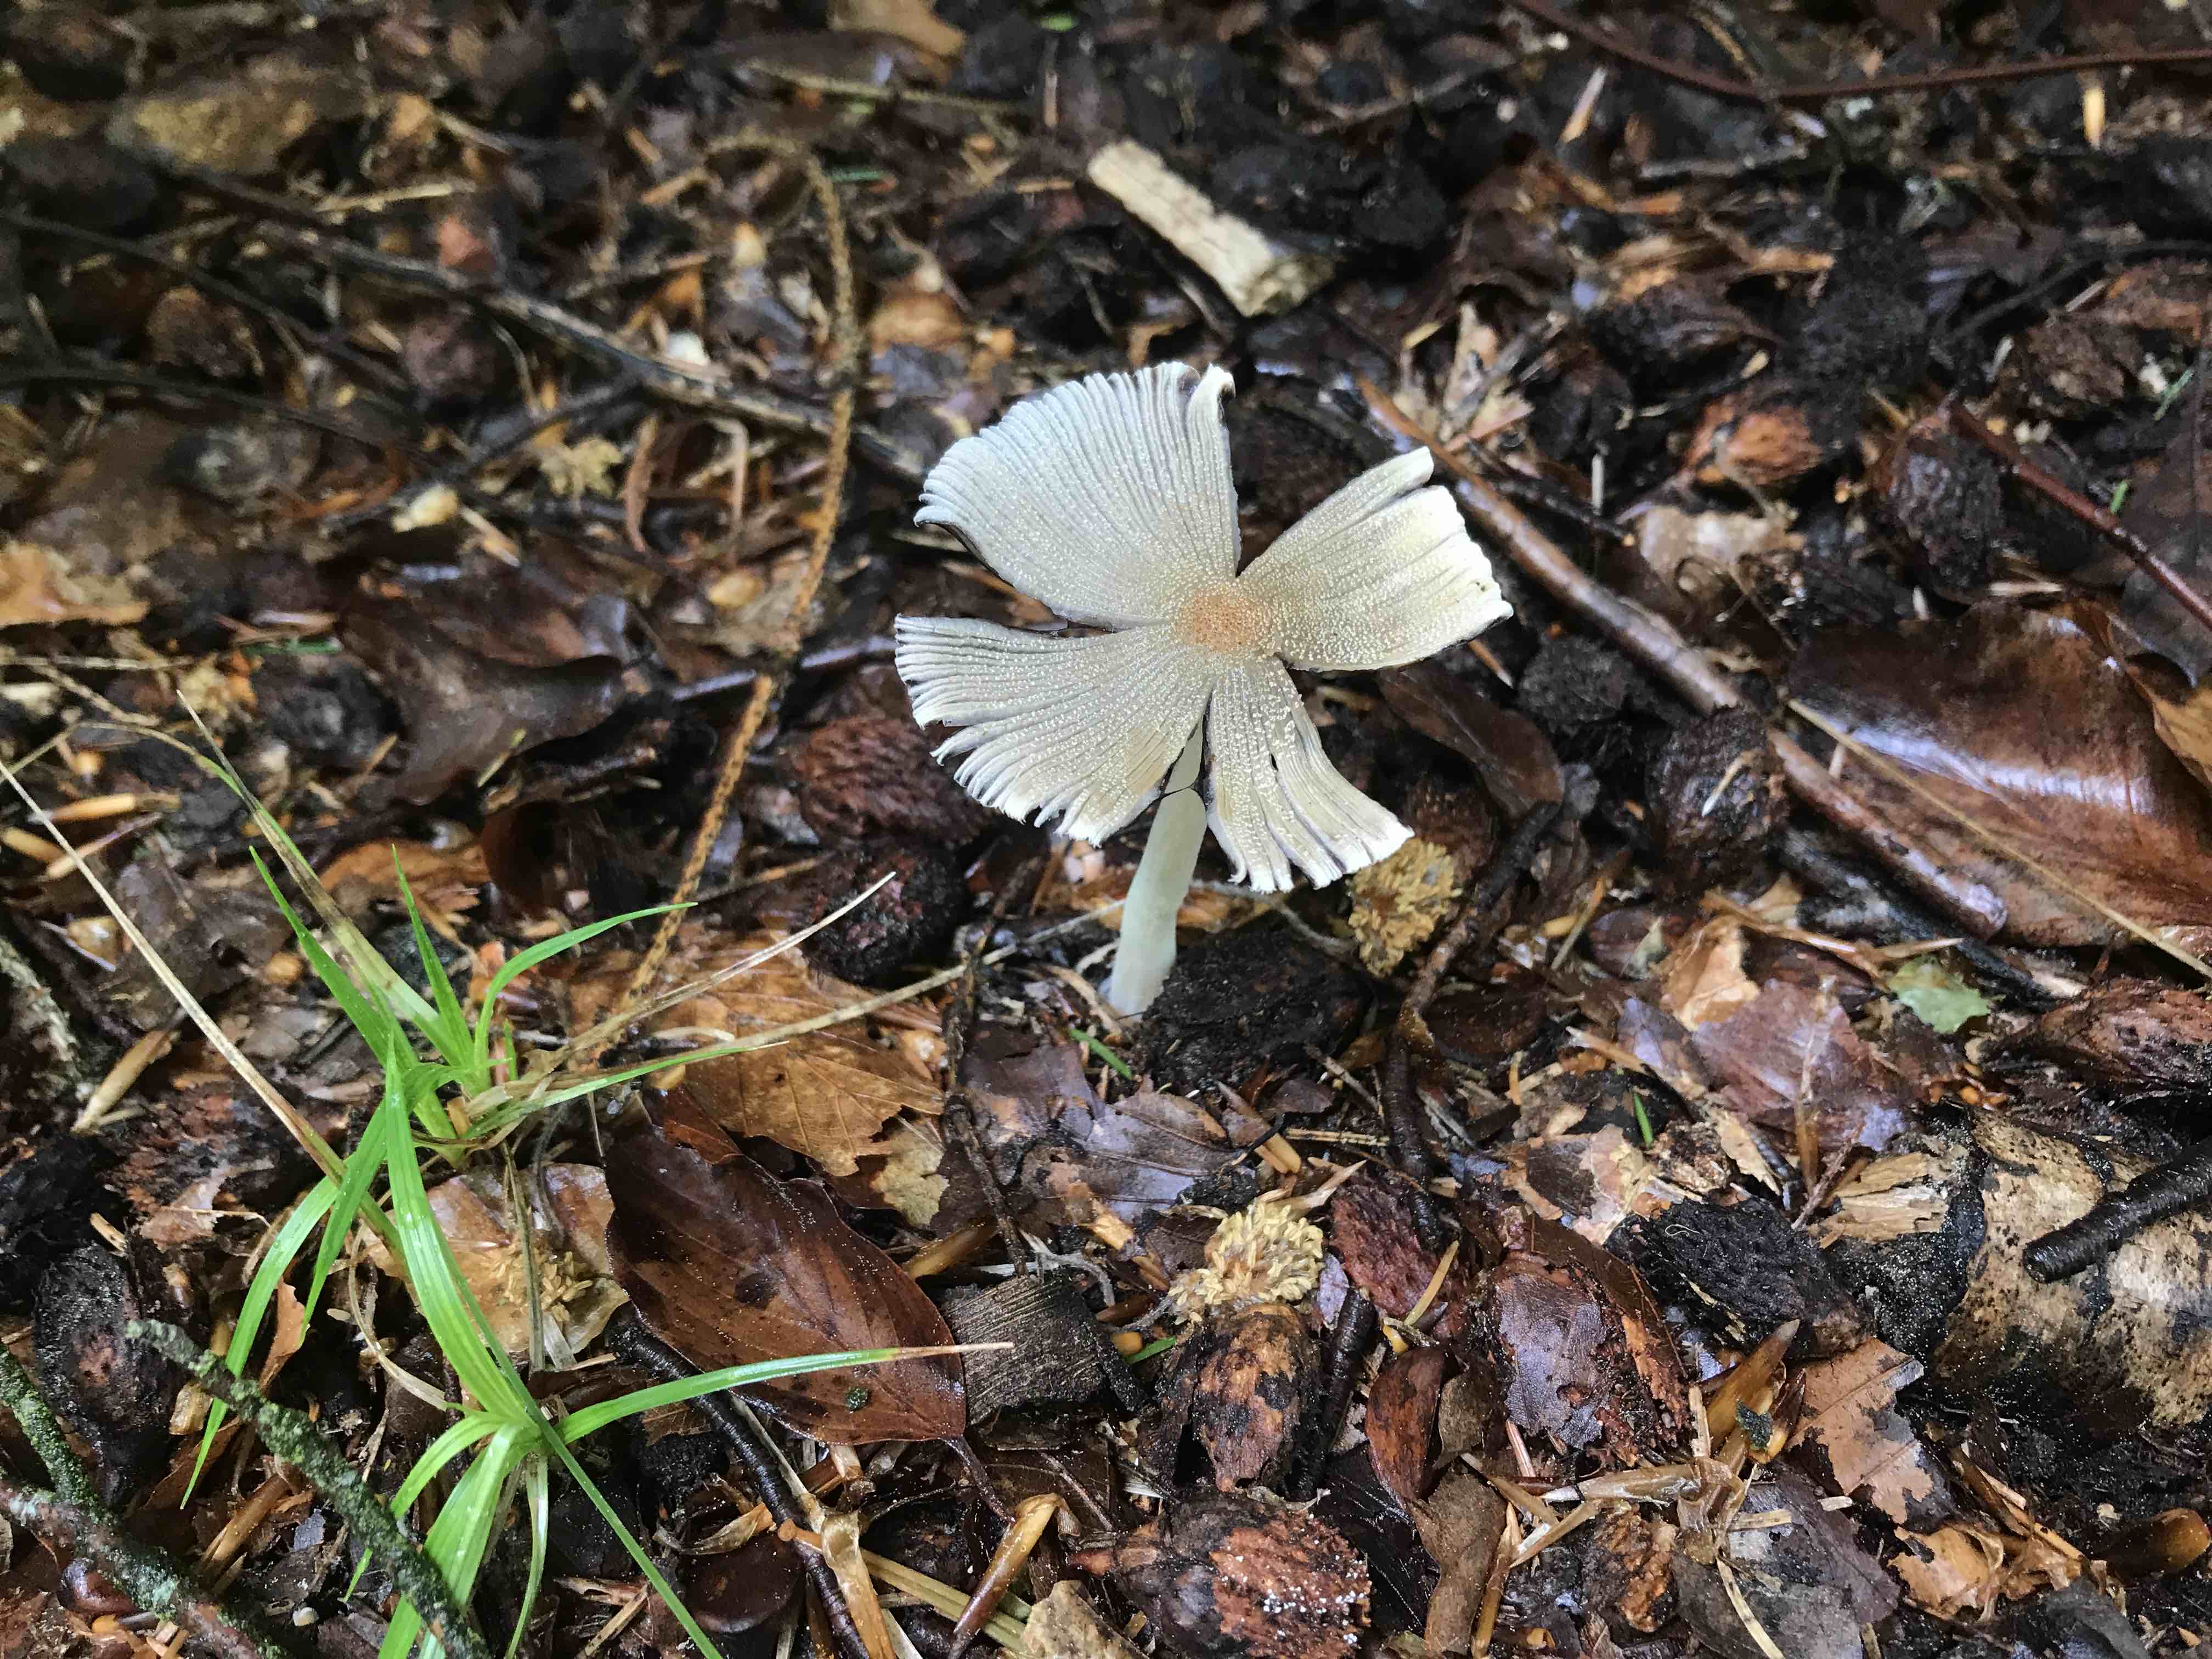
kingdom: Fungi
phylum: Basidiomycota
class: Agaricomycetes
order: Agaricales
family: Psathyrellaceae
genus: Coprinellus
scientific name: Coprinellus
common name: blækhat
